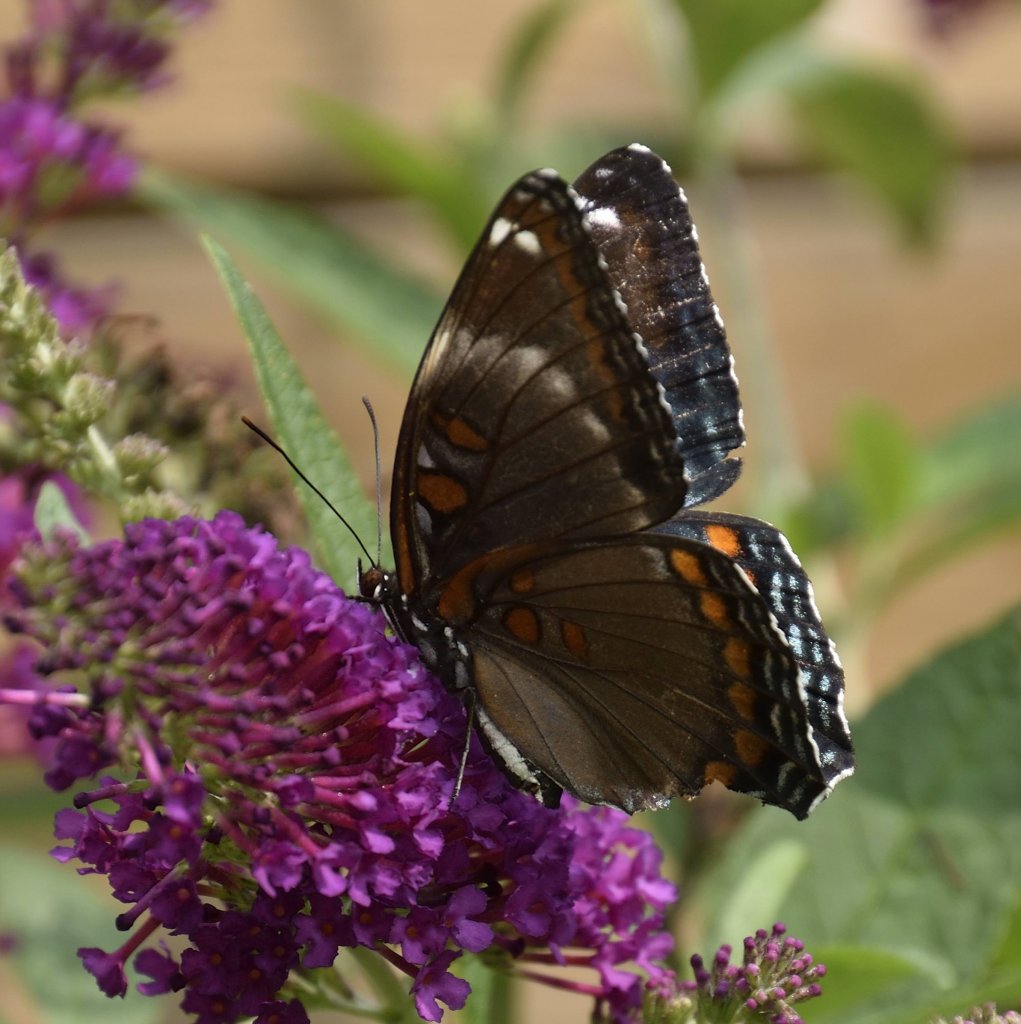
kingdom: Animalia
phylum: Arthropoda
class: Insecta
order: Lepidoptera
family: Nymphalidae
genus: Limenitis
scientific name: Limenitis
